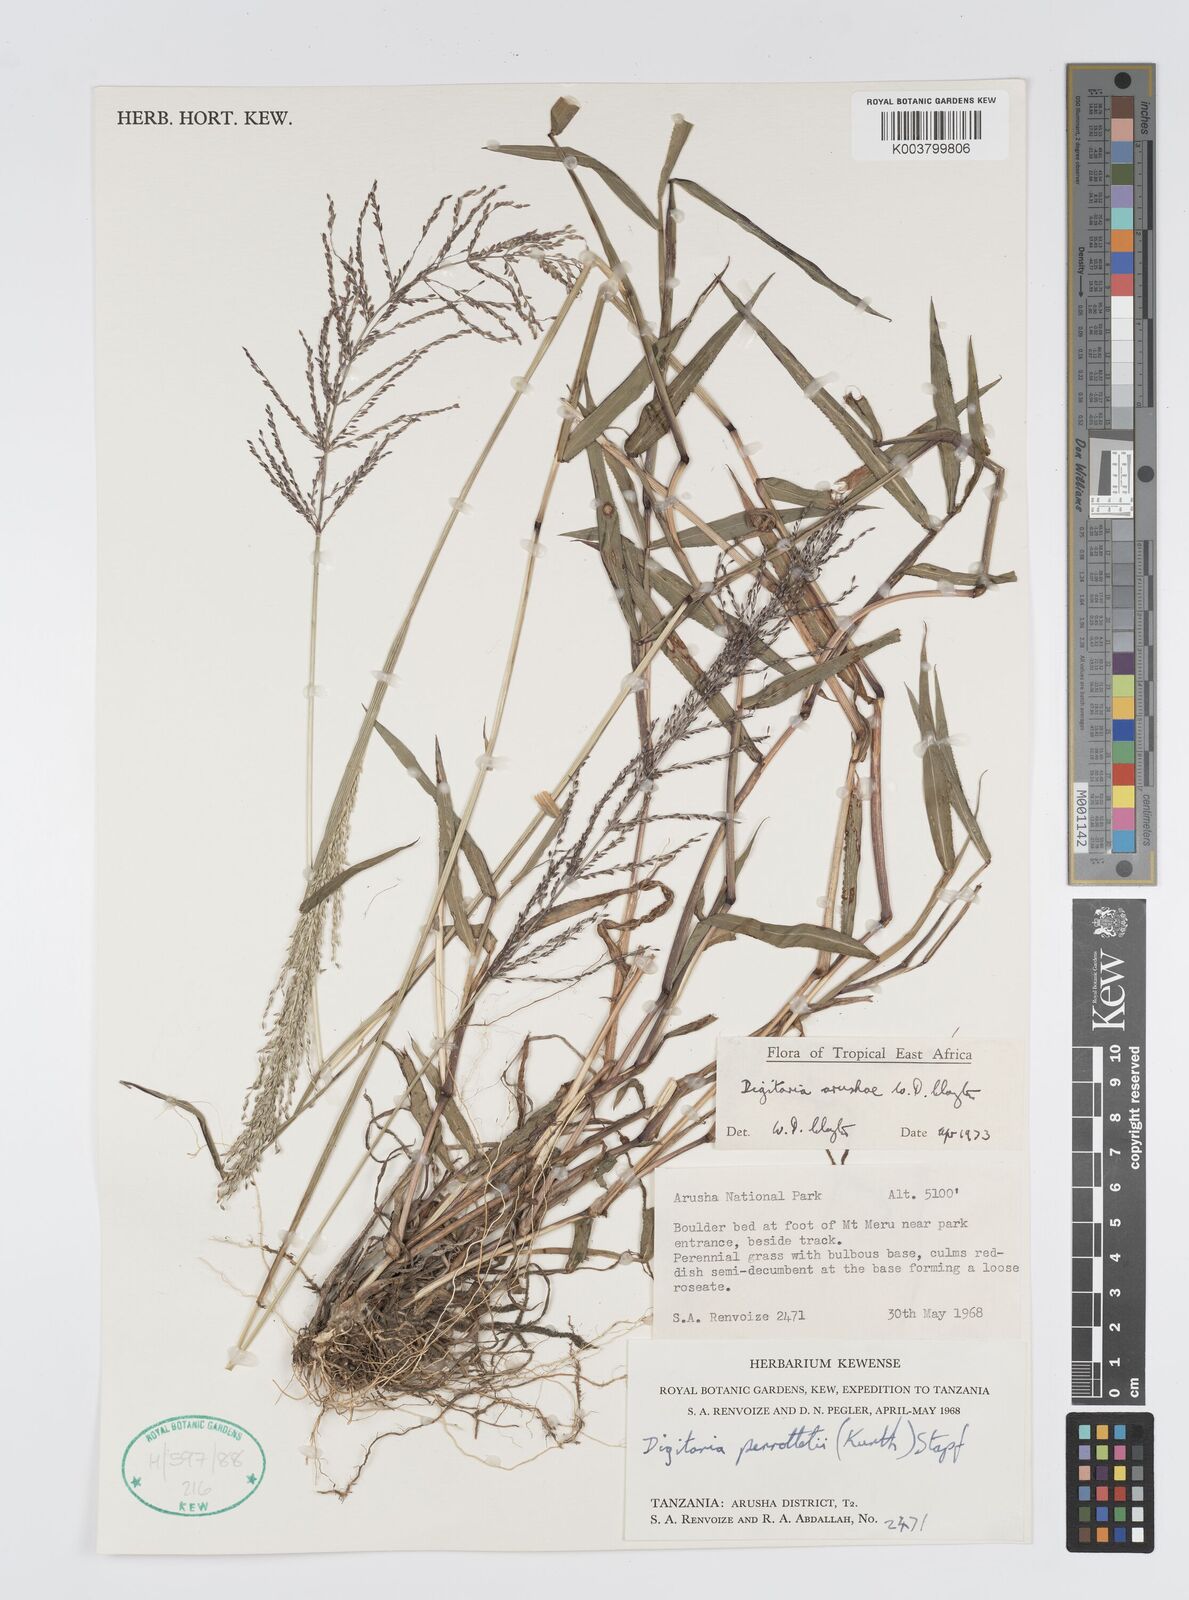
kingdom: Plantae
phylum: Tracheophyta
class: Liliopsida
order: Poales
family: Poaceae
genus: Digitaria
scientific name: Digitaria arushae
